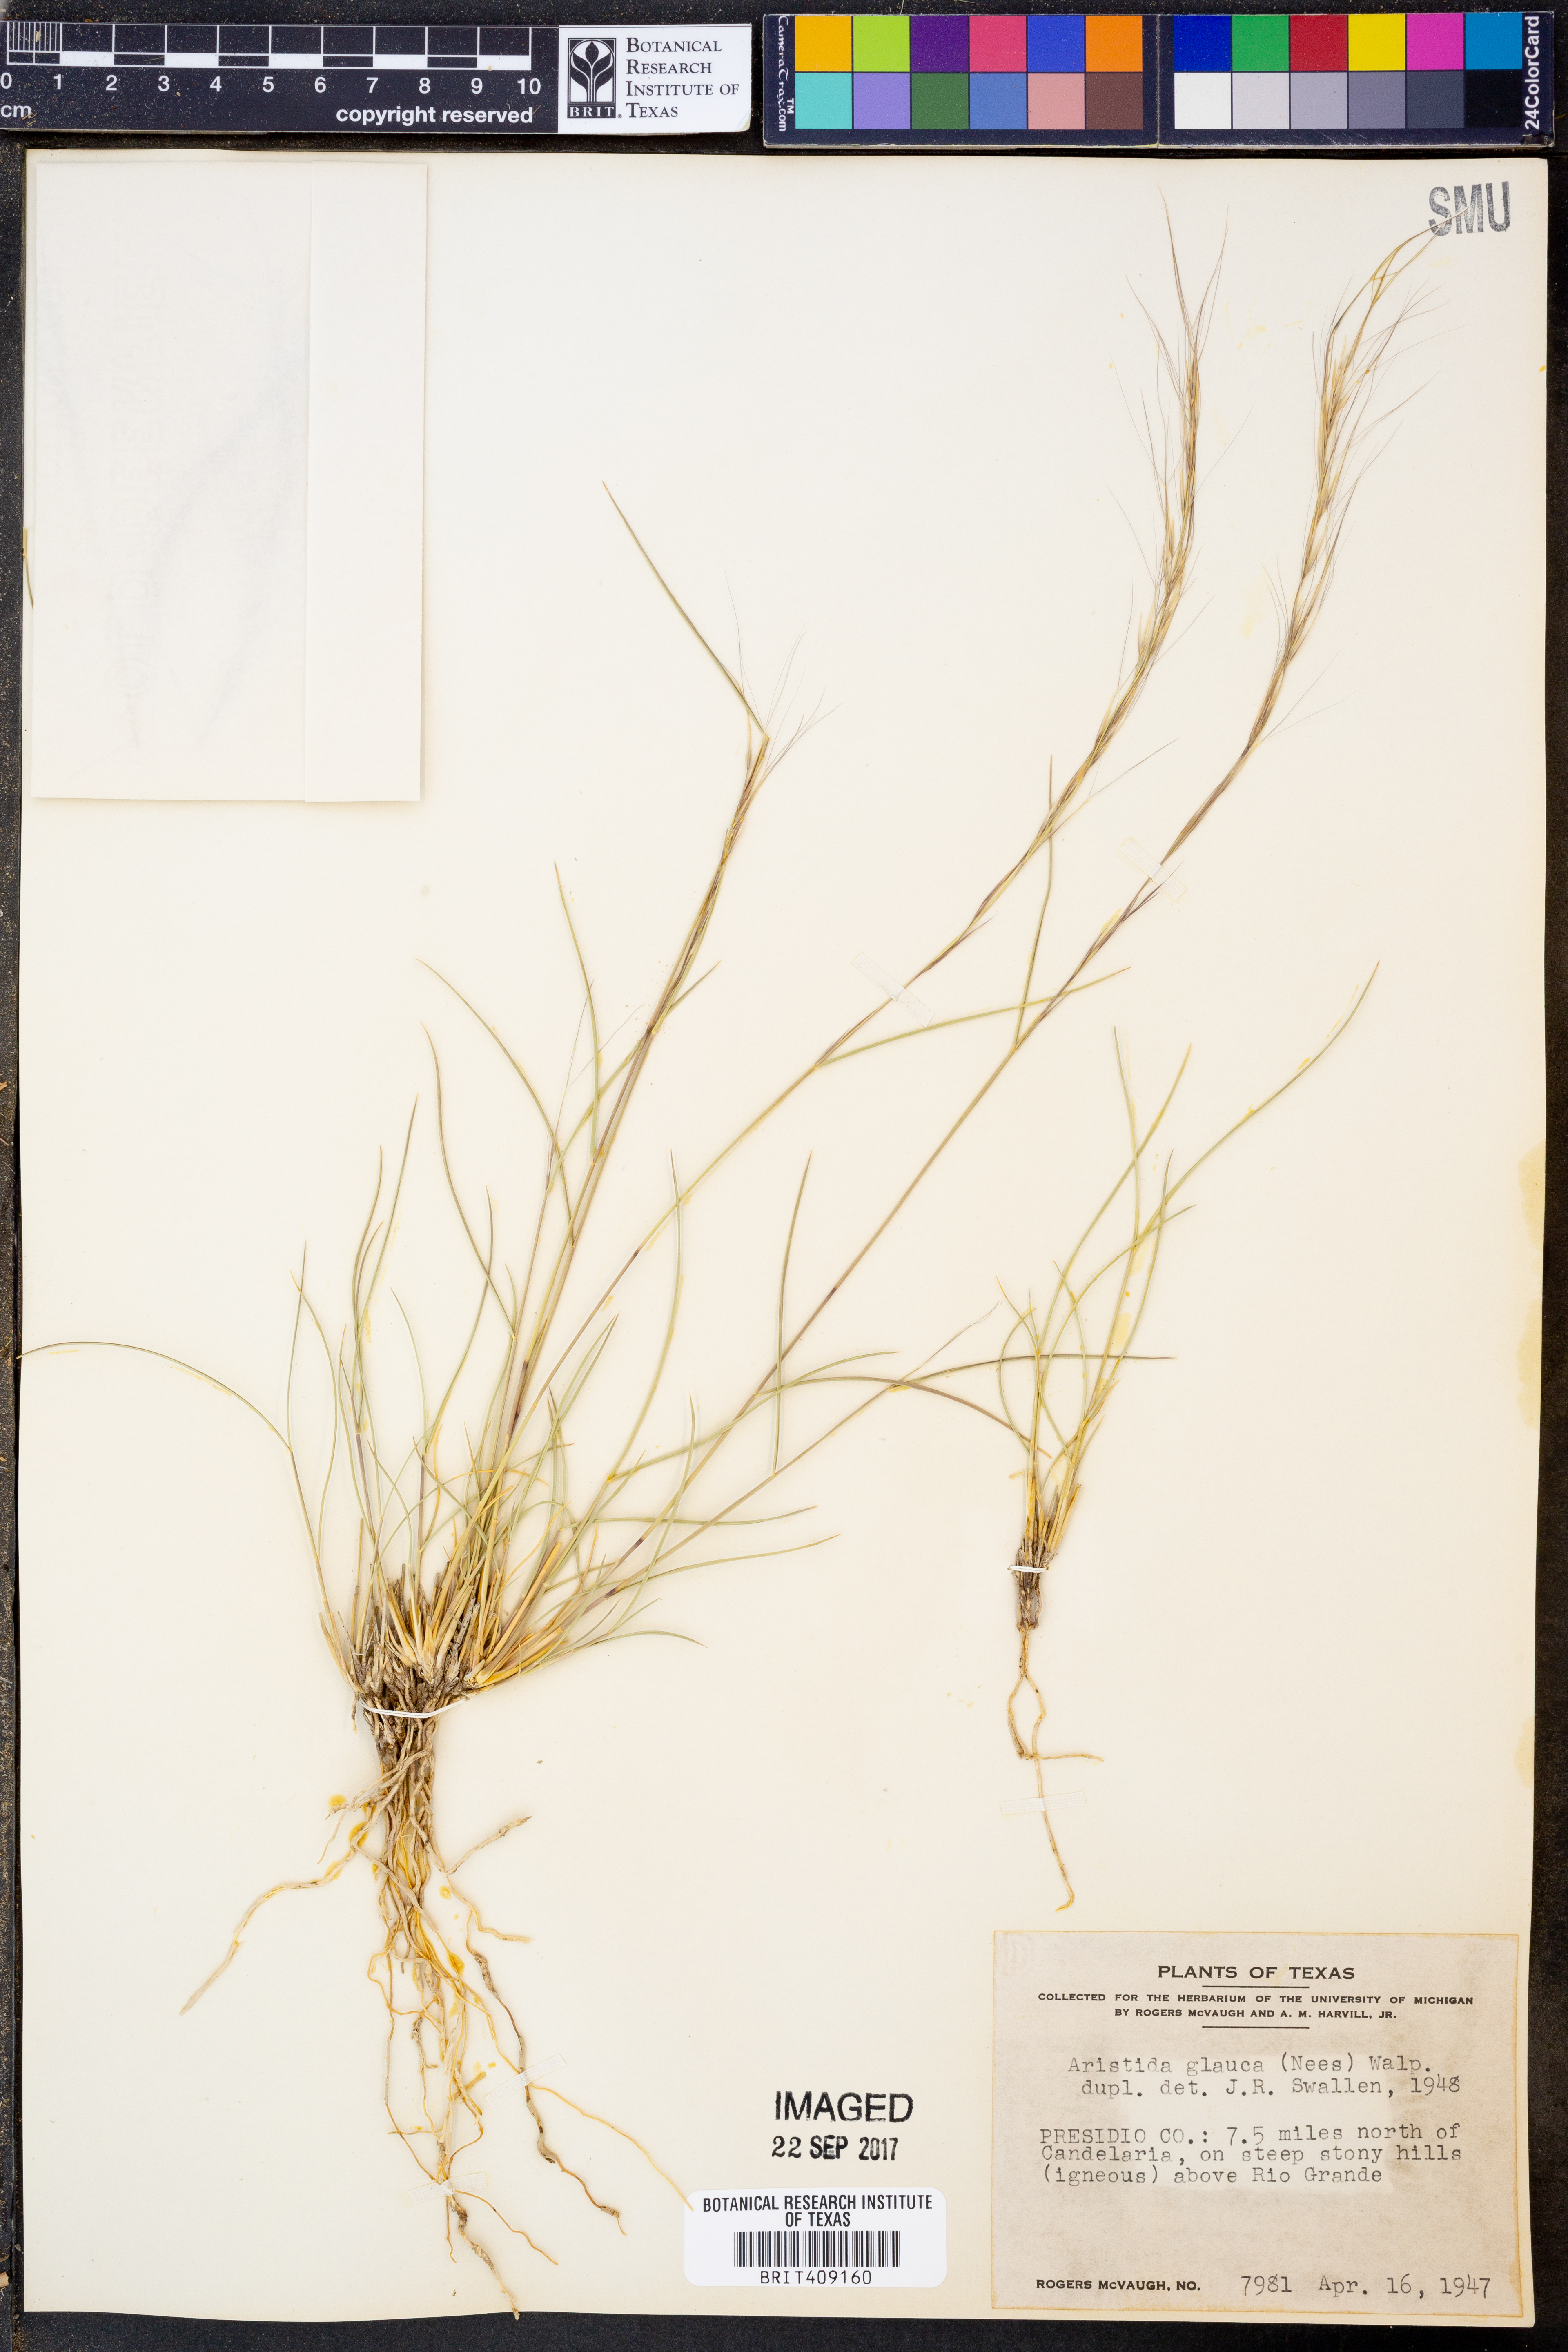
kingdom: Plantae
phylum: Tracheophyta
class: Liliopsida
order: Poales
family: Poaceae
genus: Aristida
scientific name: Aristida glauca
